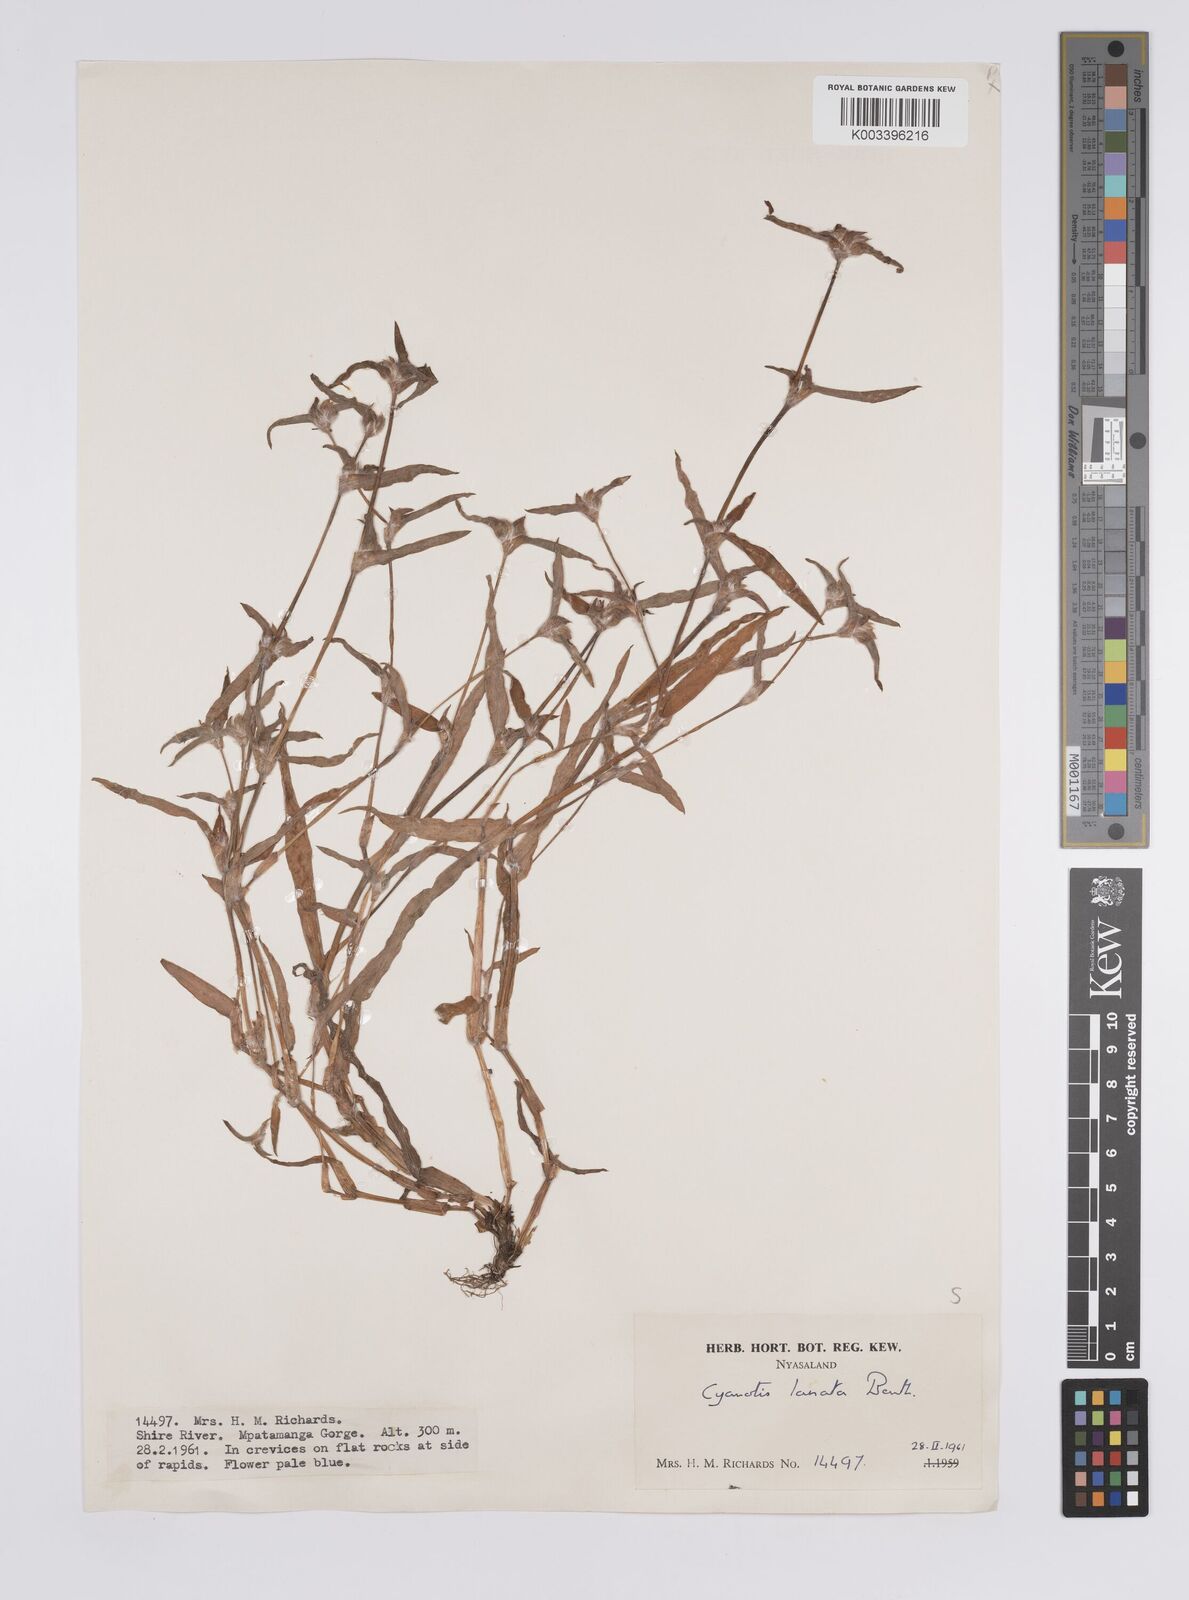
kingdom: Plantae
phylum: Tracheophyta
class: Liliopsida
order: Commelinales
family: Commelinaceae
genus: Cyanotis
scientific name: Cyanotis lanata
